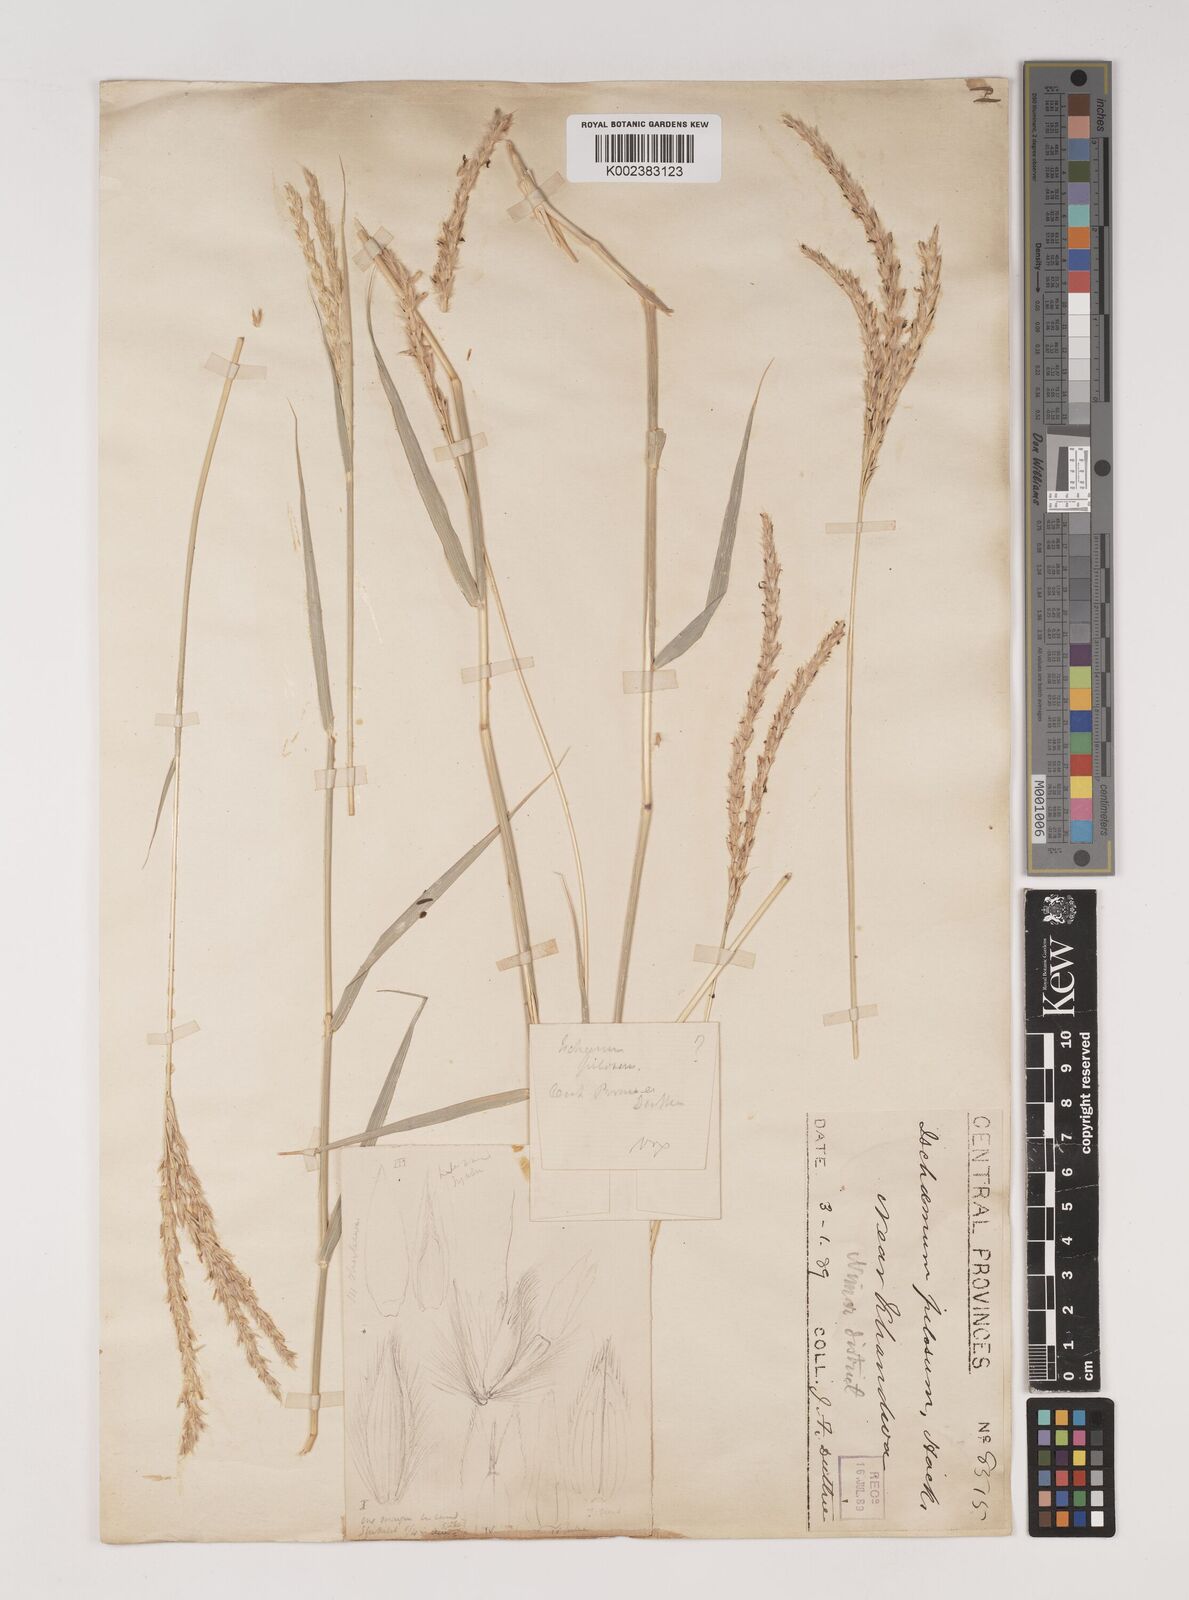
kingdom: Plantae
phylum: Tracheophyta
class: Liliopsida
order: Poales
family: Poaceae
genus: Ischaemum
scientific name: Ischaemum afrum
